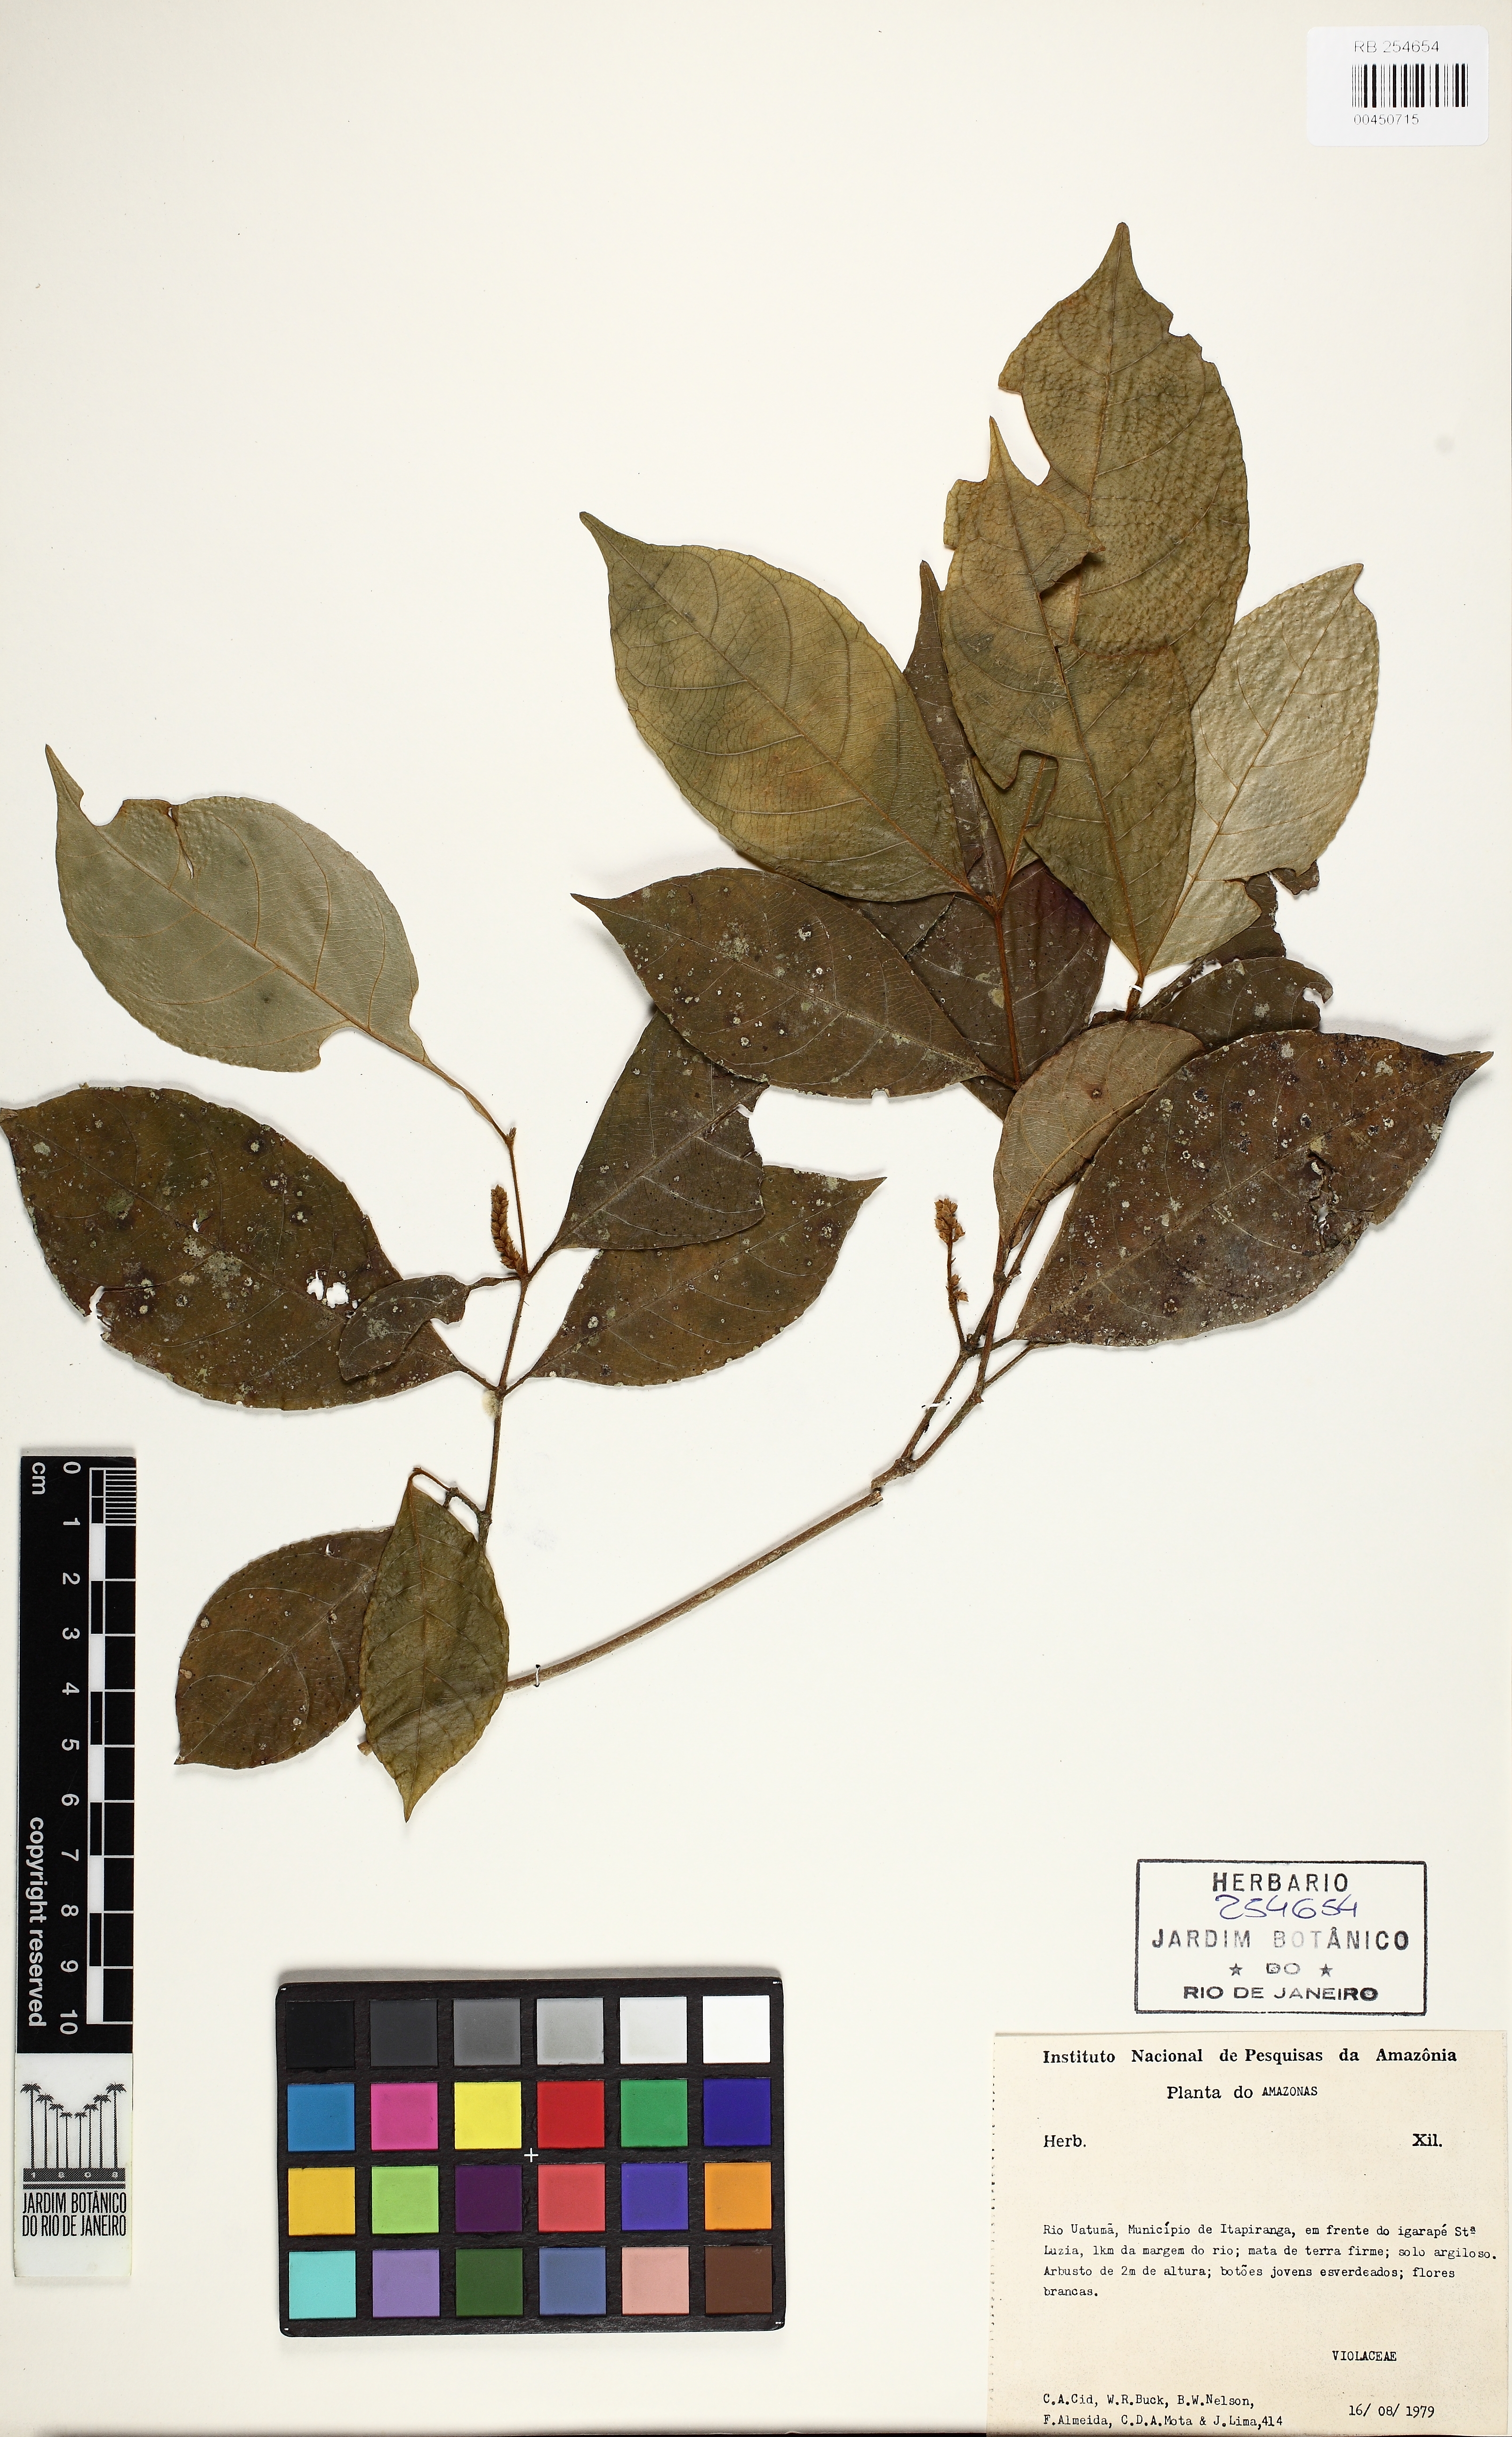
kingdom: Plantae
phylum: Tracheophyta
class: Magnoliopsida
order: Malpighiales
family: Violaceae
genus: Rinorea
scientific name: Rinorea
